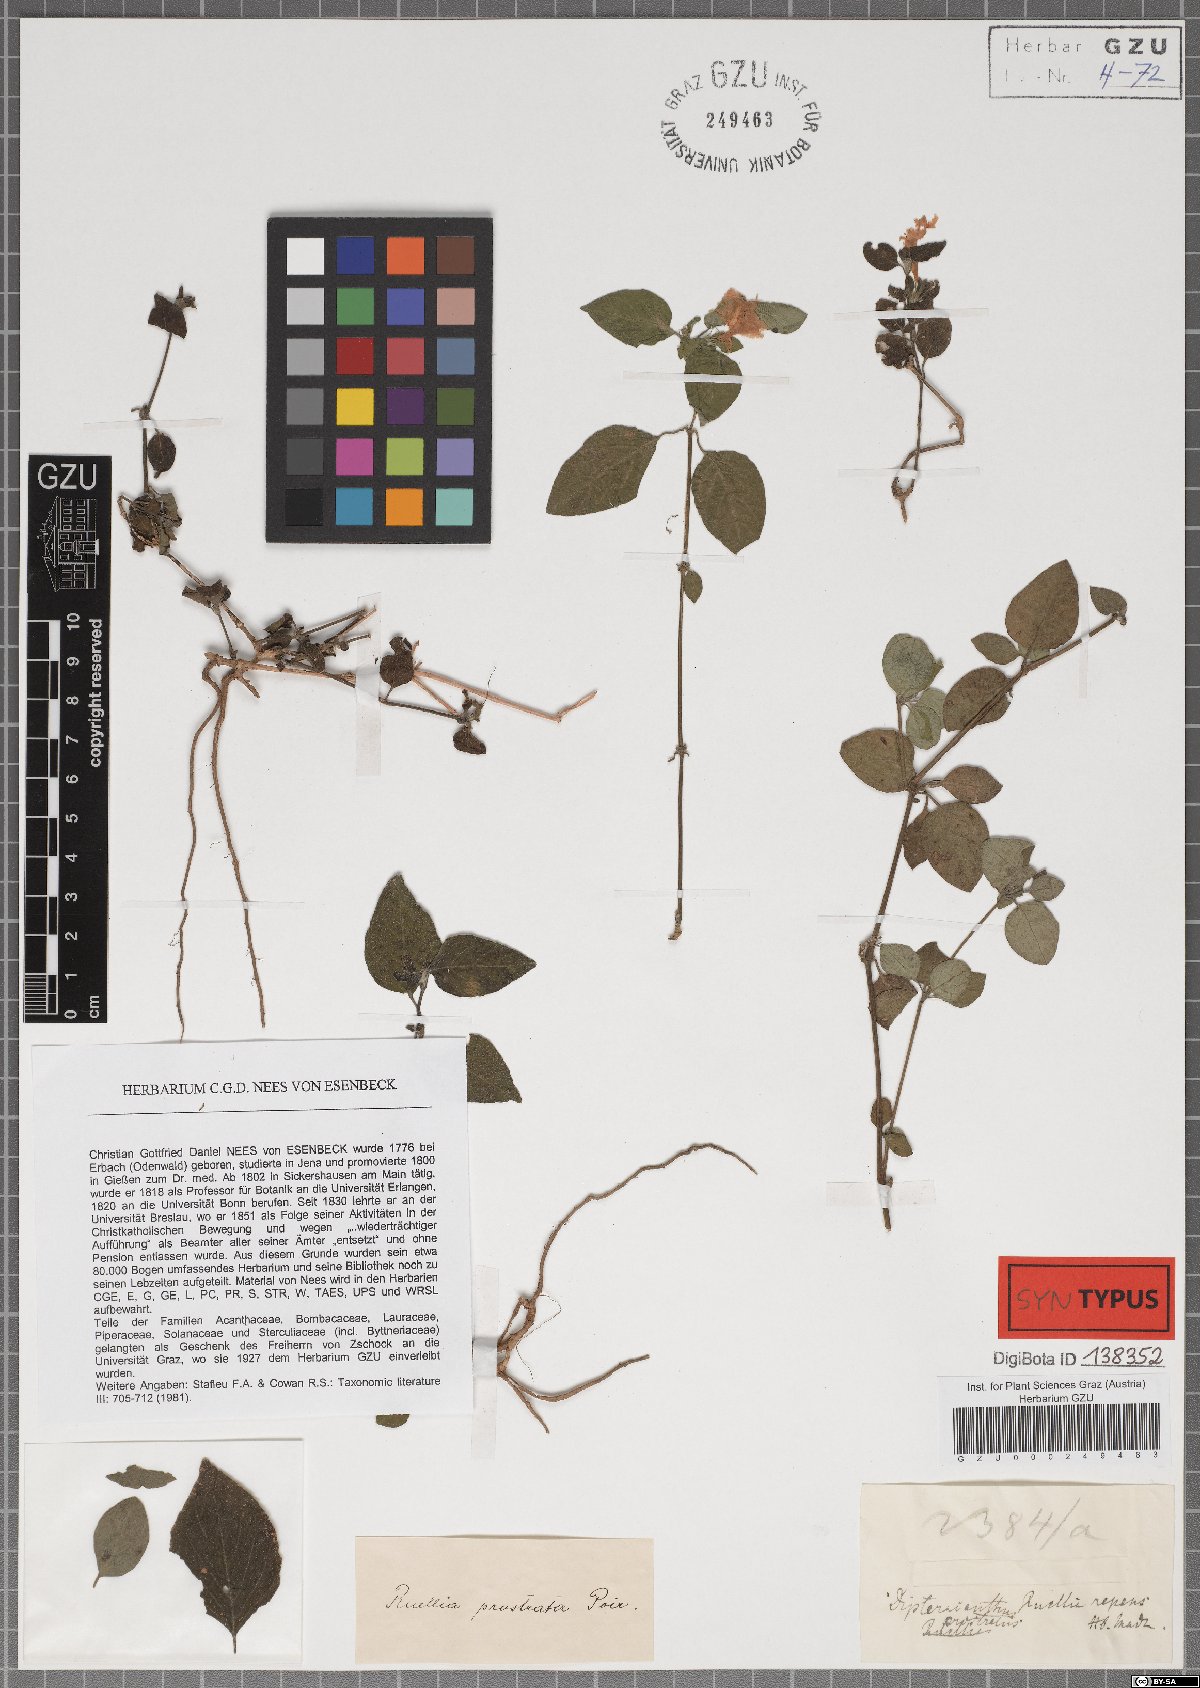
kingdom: Plantae
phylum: Tracheophyta
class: Magnoliopsida
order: Lamiales
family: Acanthaceae
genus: Ruellia
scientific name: Ruellia prostrata
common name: Prostrate wild petunia
